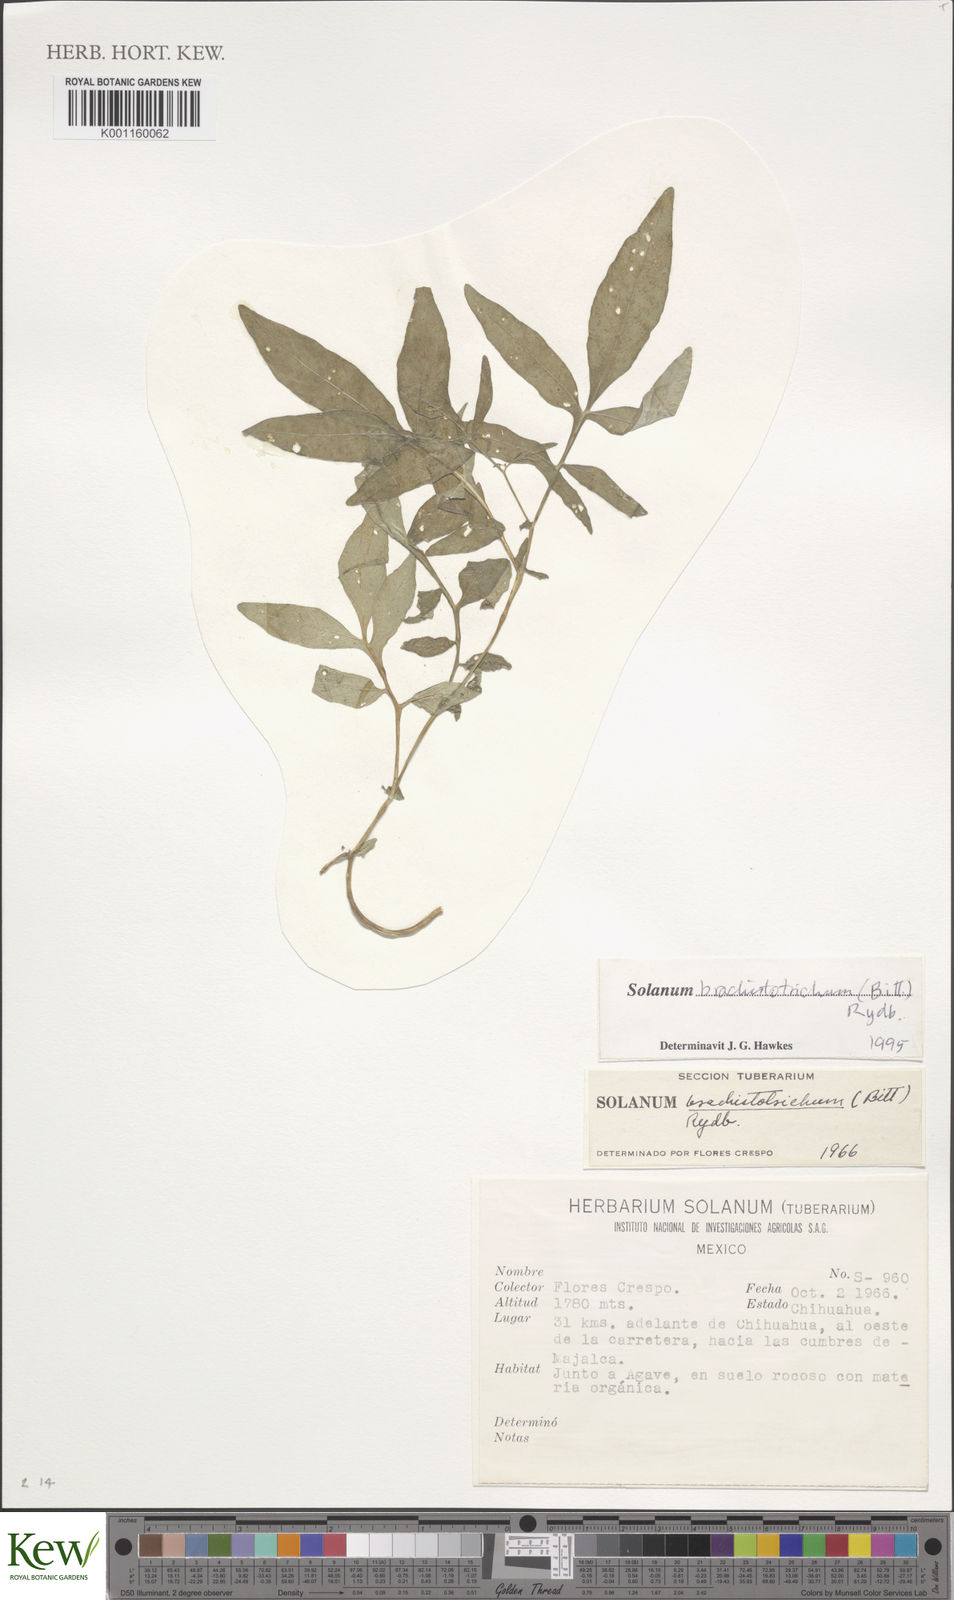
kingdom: Plantae
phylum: Tracheophyta
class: Magnoliopsida
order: Solanales
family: Solanaceae
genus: Solanum
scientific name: Solanum
